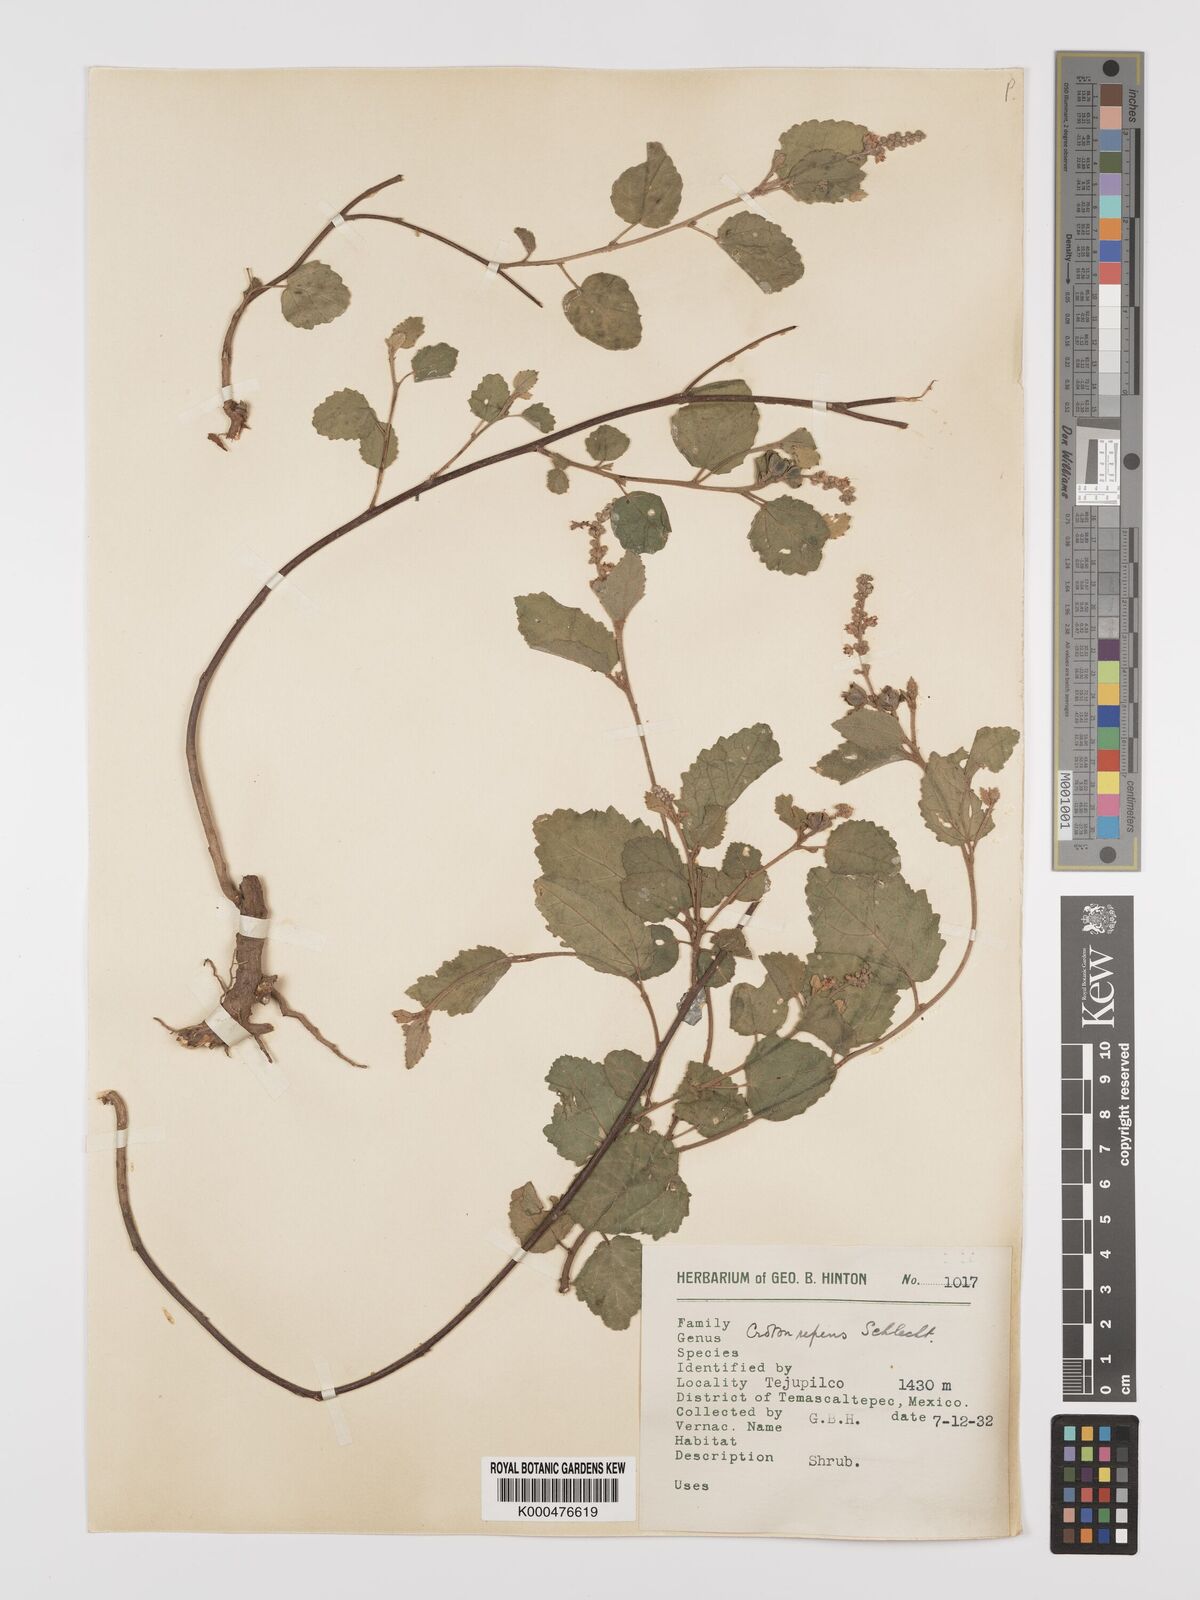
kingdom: Plantae
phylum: Tracheophyta
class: Magnoliopsida
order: Malpighiales
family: Euphorbiaceae
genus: Croton
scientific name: Croton repens
